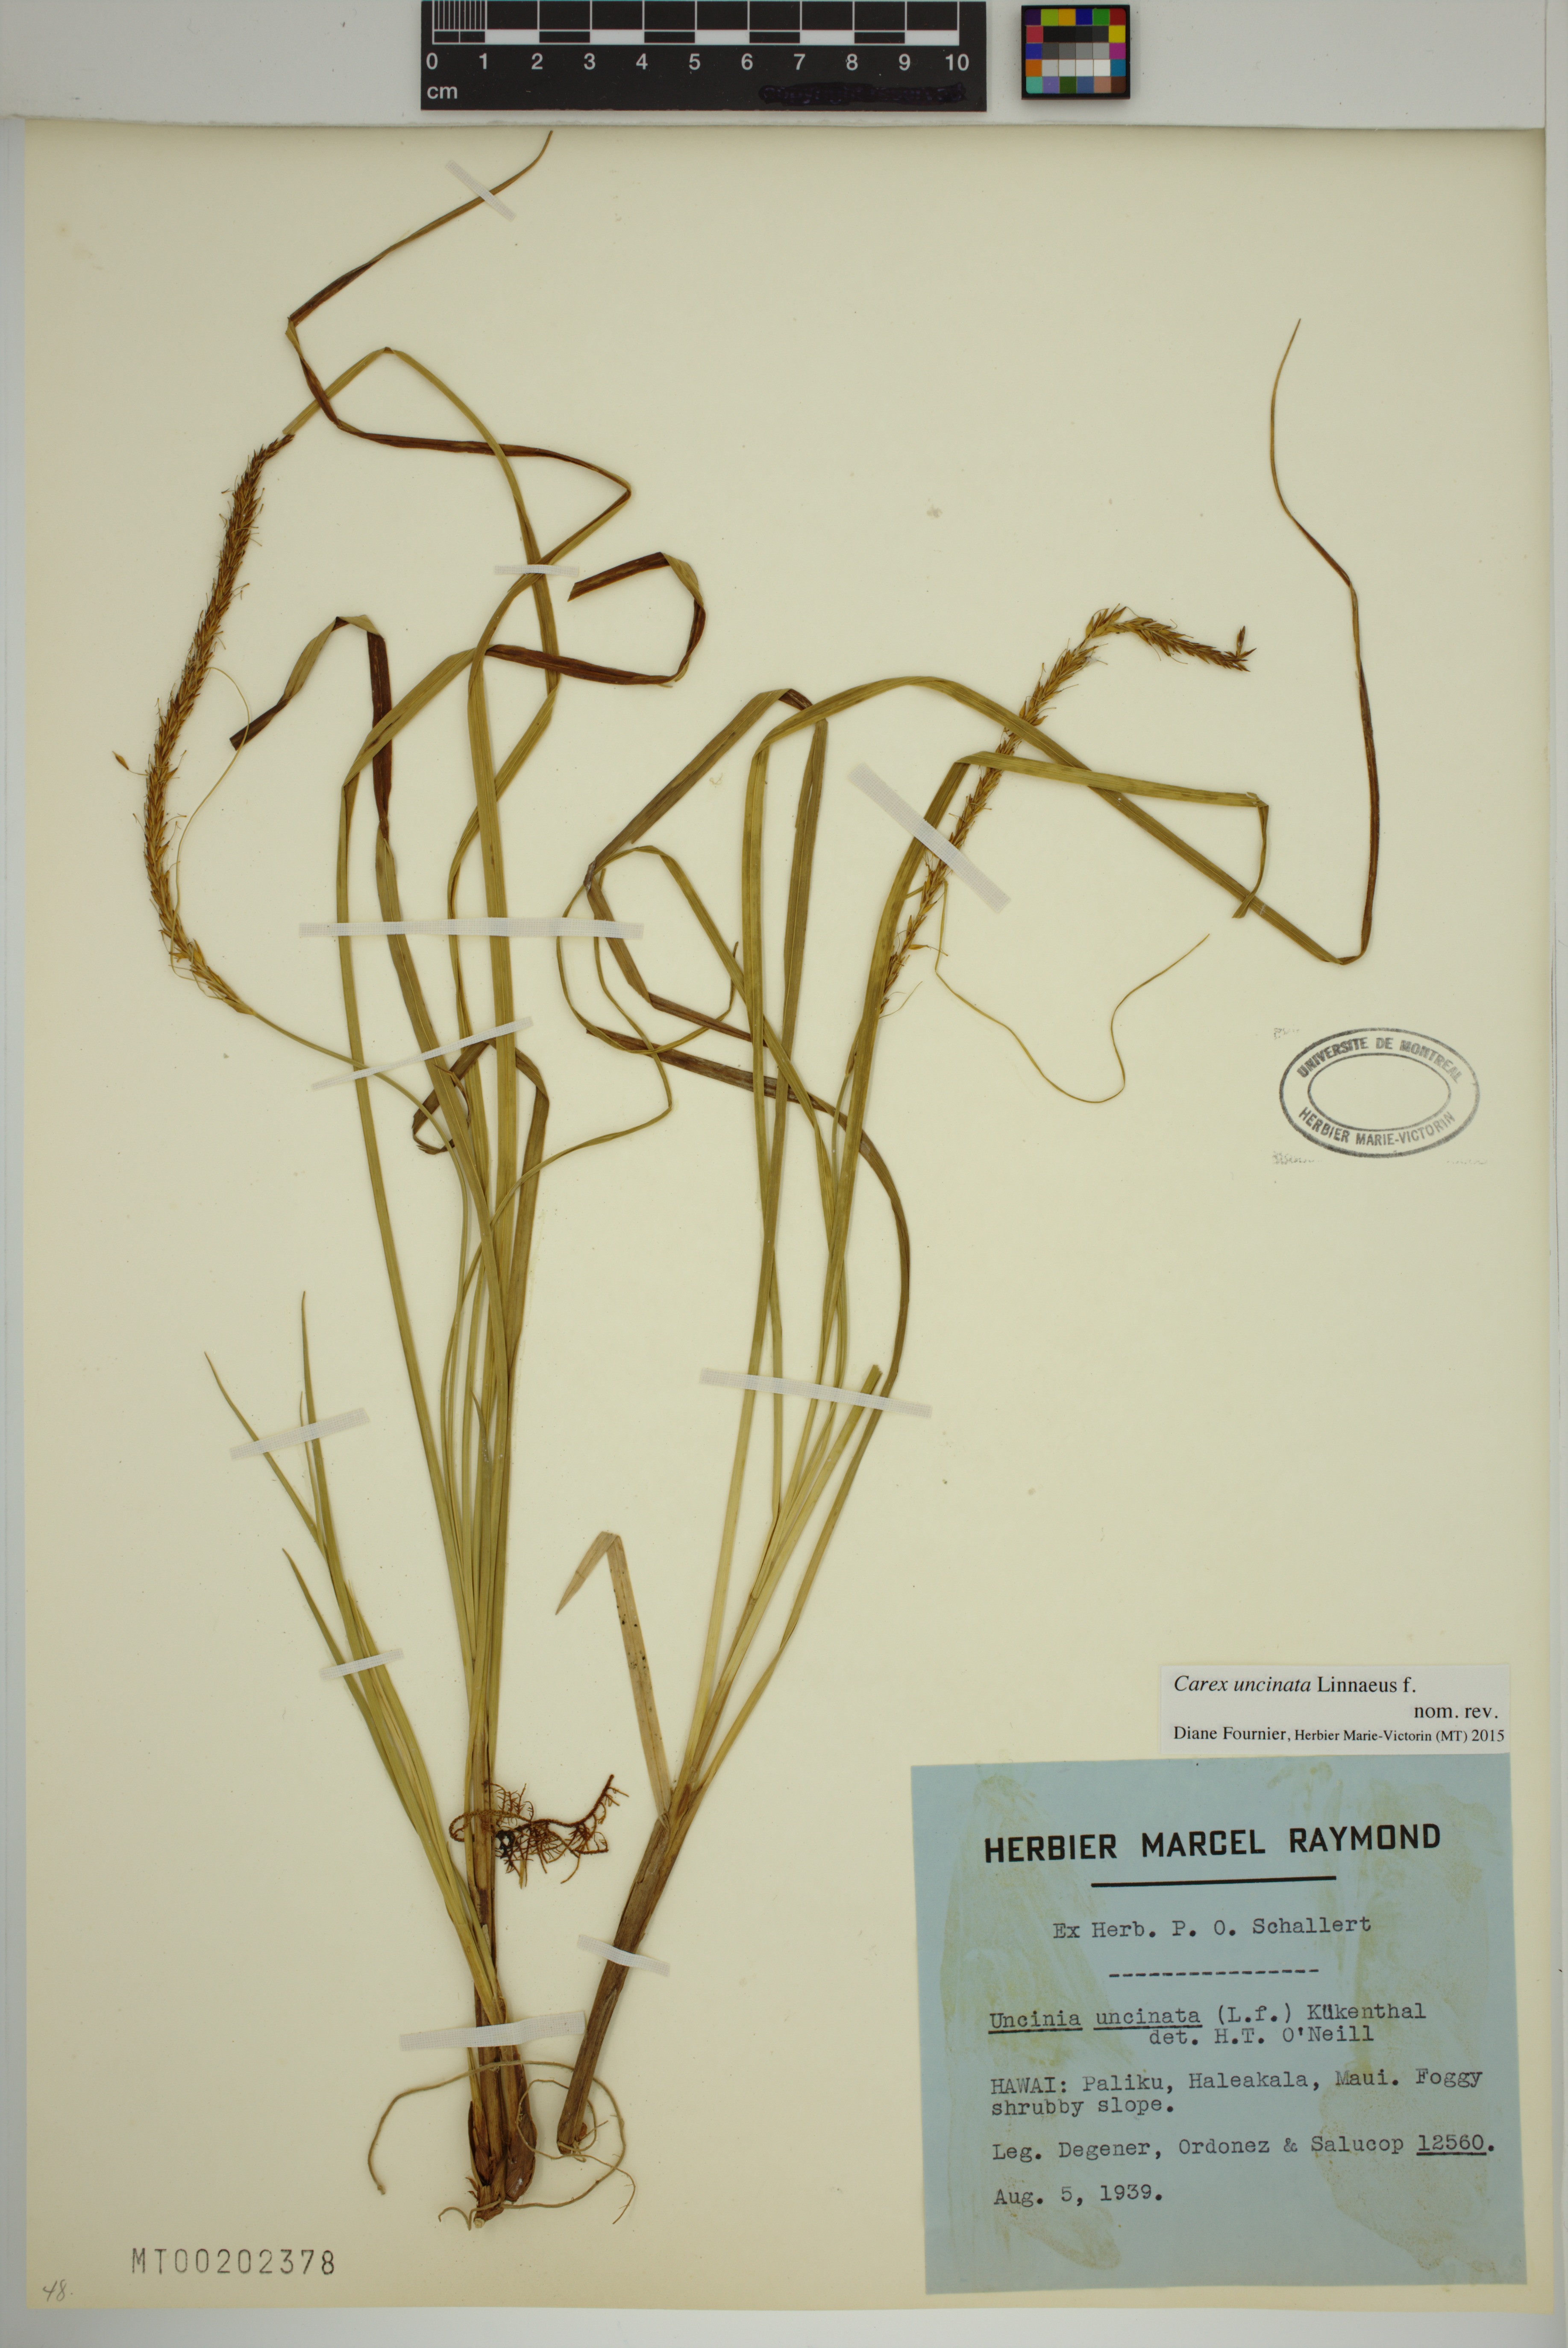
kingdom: Plantae
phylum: Tracheophyta
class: Liliopsida
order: Poales
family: Cyperaceae
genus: Carex
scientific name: Carex uncinata
